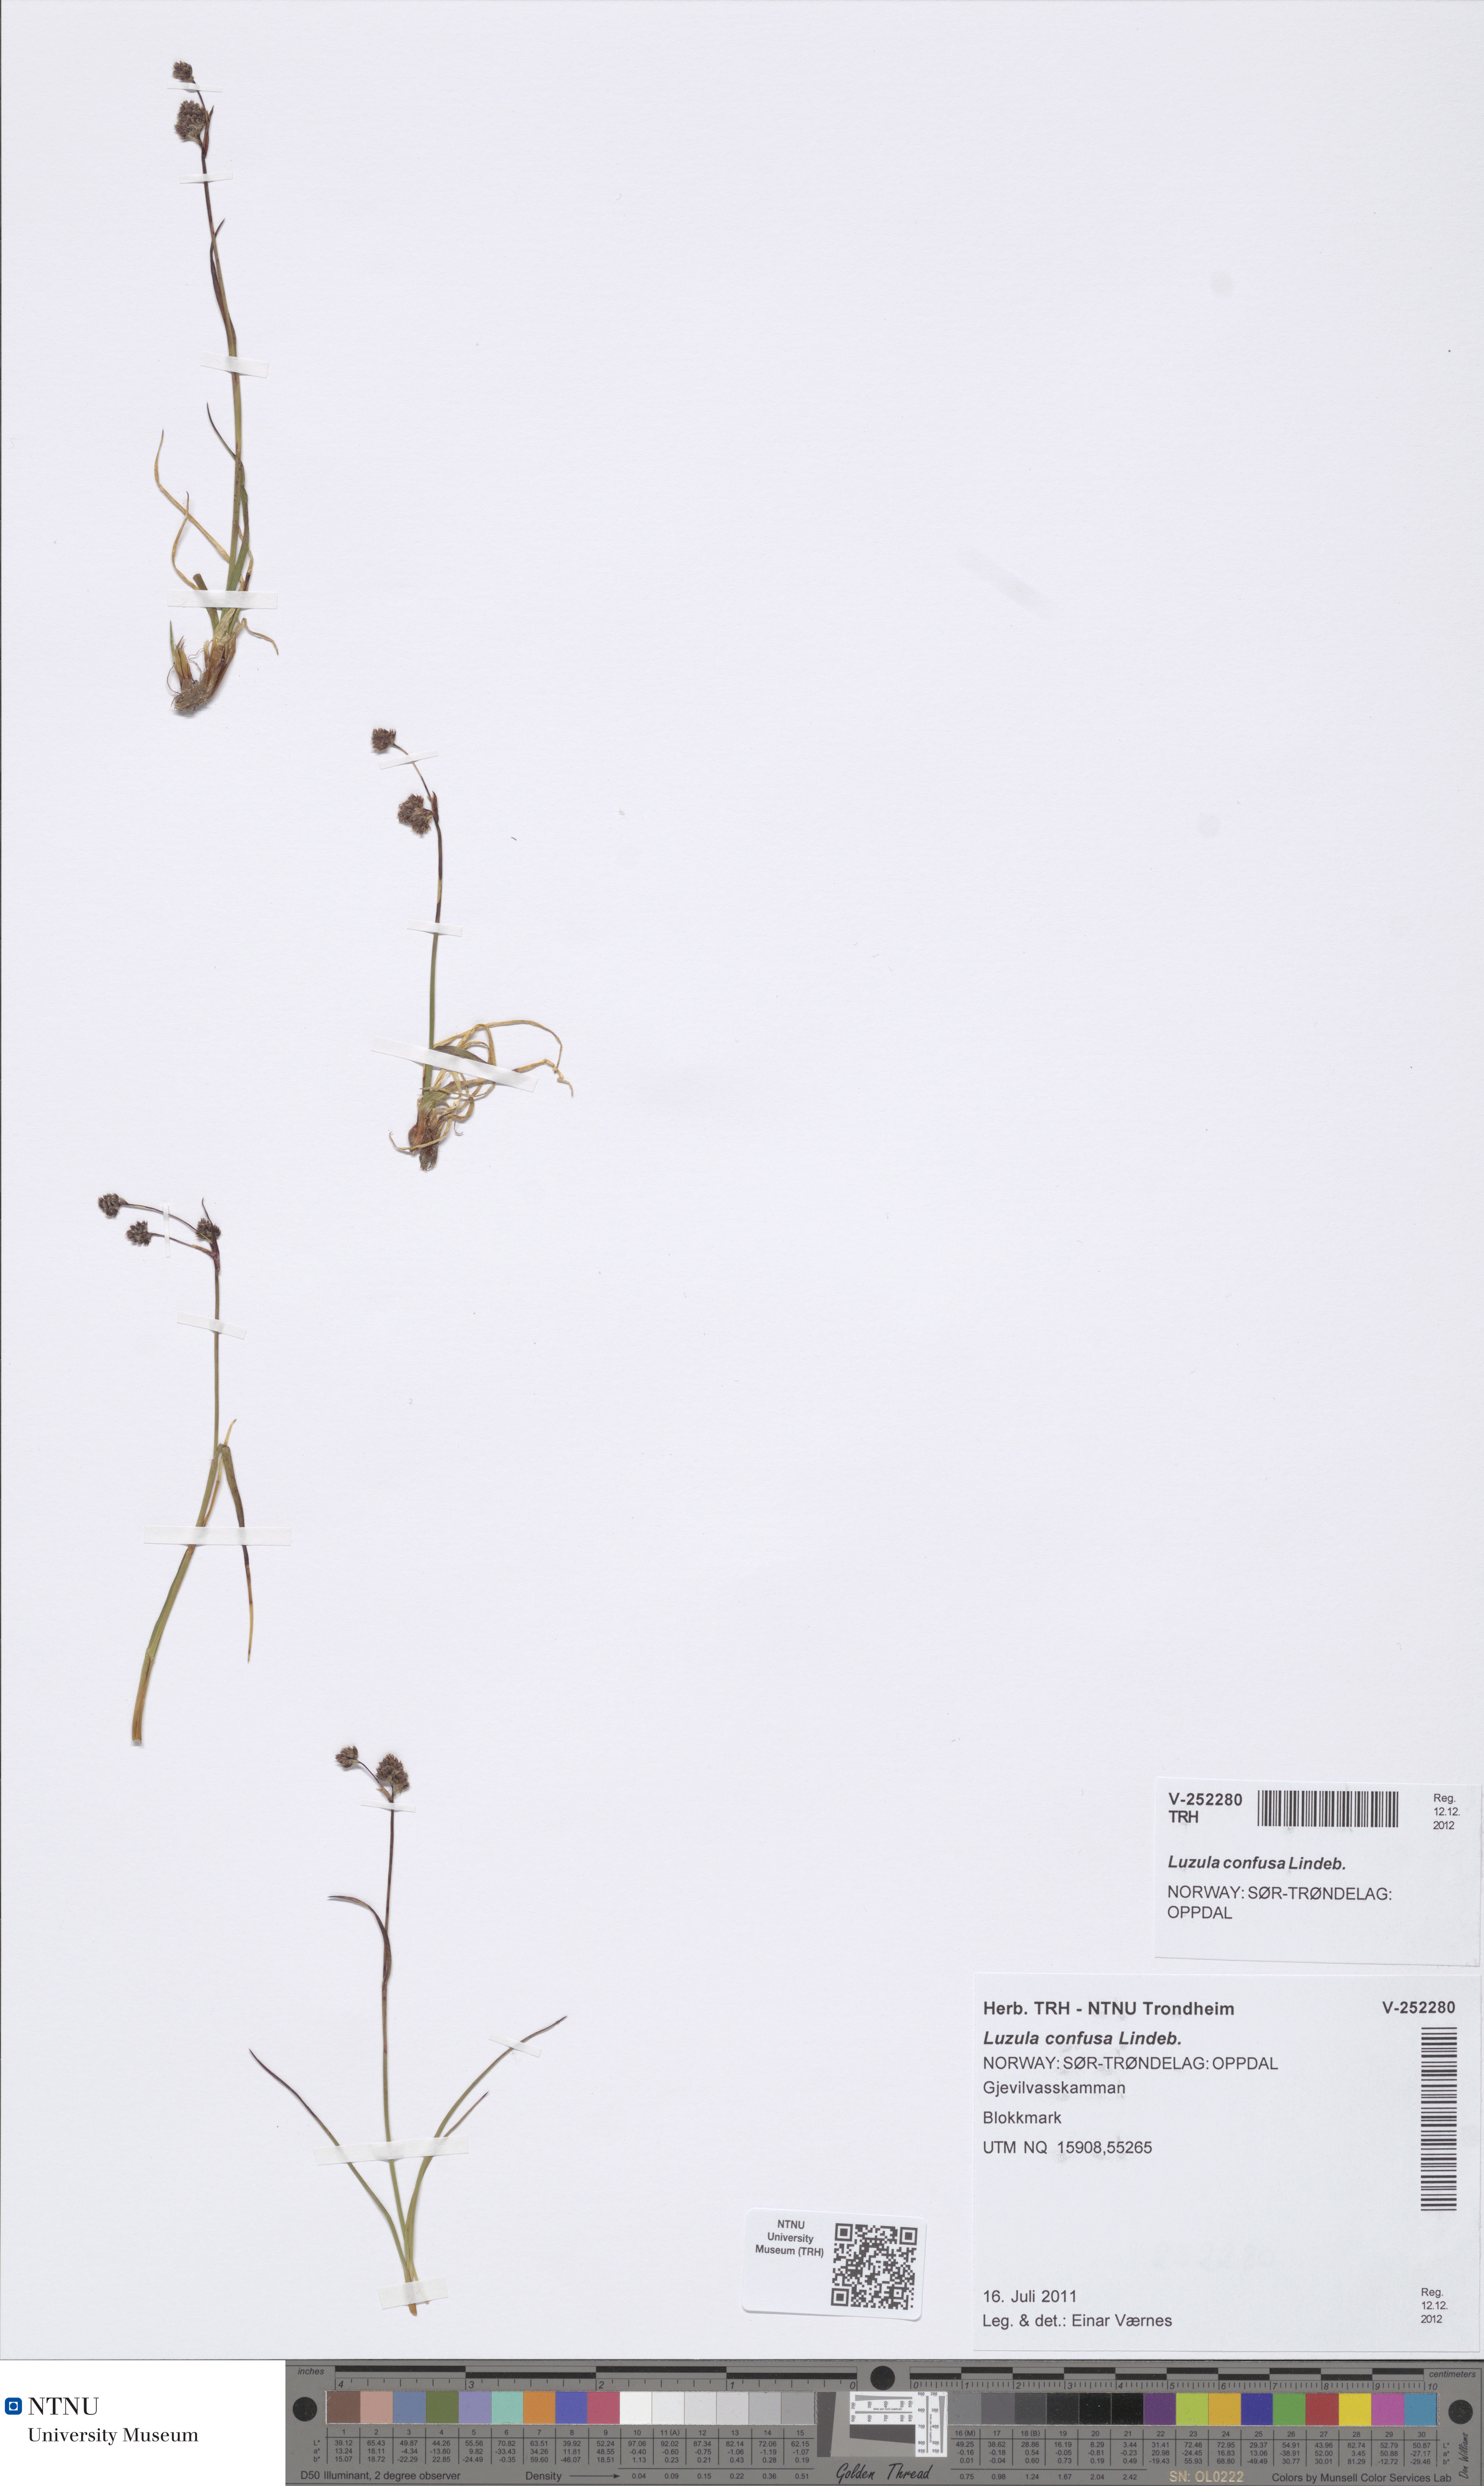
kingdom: Plantae
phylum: Tracheophyta
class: Liliopsida
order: Poales
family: Juncaceae
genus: Luzula
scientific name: Luzula confusa
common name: Northern wood rush
